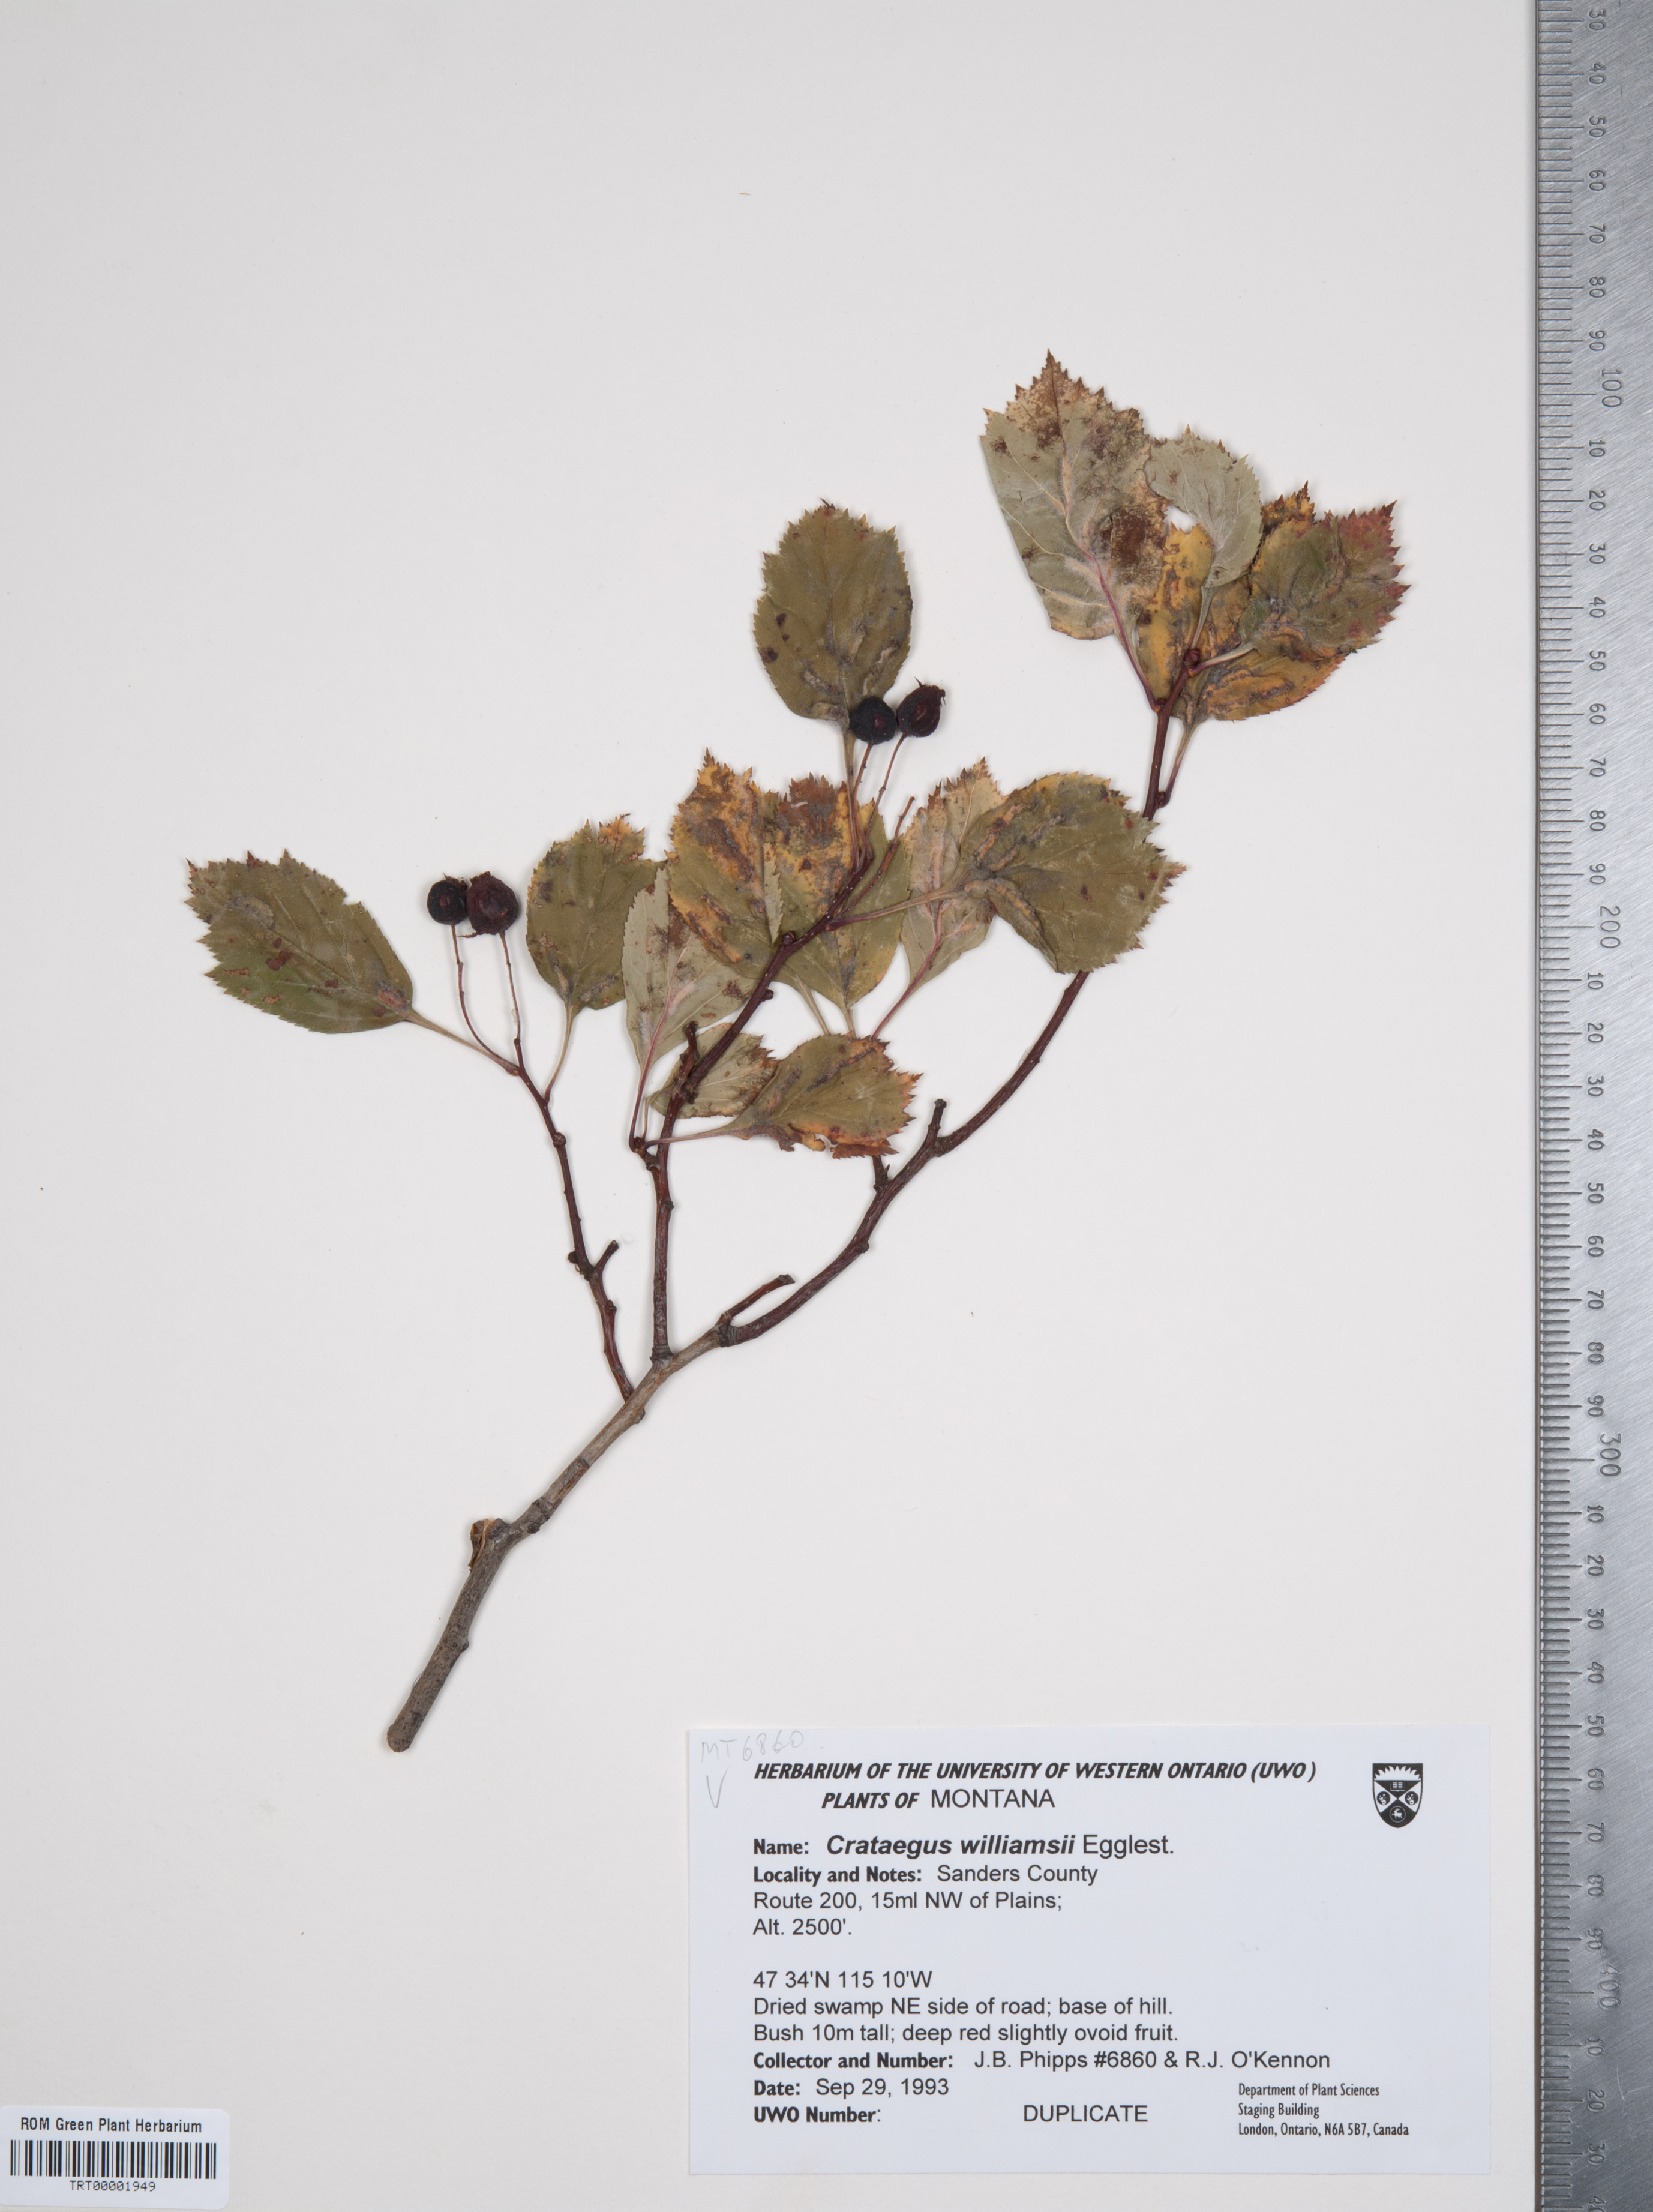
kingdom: Plantae
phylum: Tracheophyta
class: Magnoliopsida
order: Rosales
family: Rosaceae
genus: Crataegus
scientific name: Crataegus williamsii
